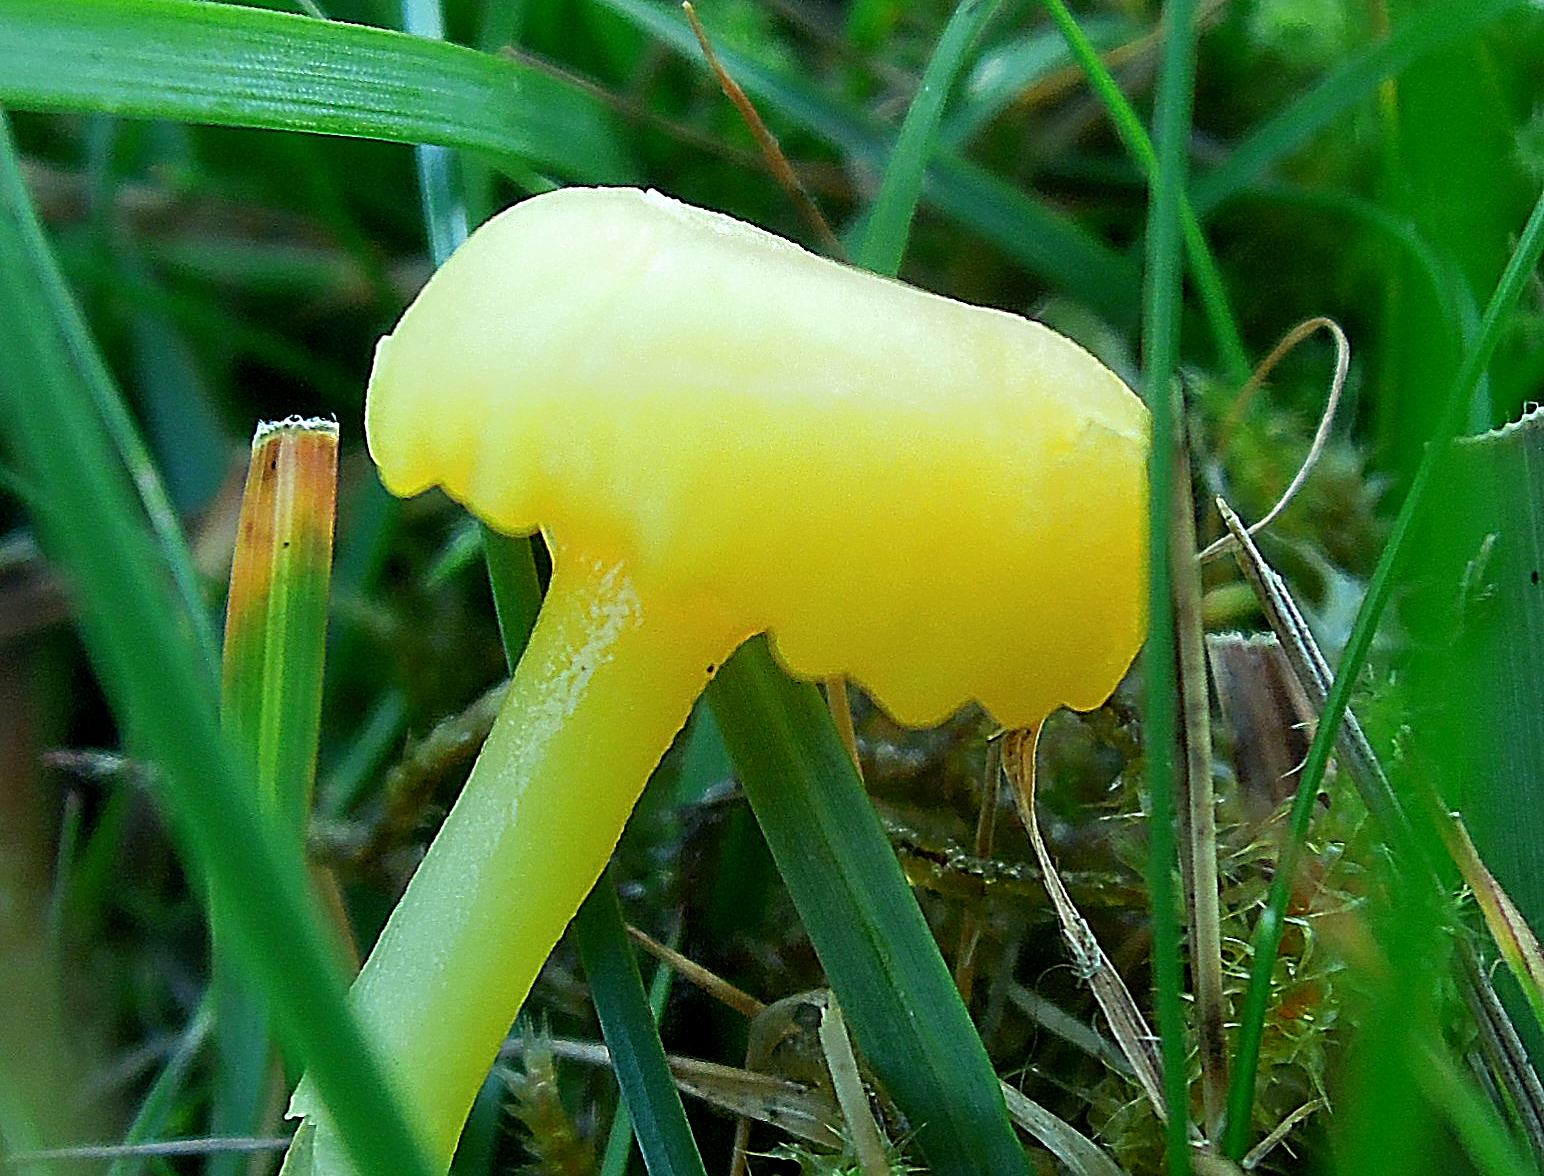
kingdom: Fungi
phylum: Basidiomycota
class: Agaricomycetes
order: Agaricales
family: Hygrophoraceae
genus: Gloioxanthomyces
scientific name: Gloioxanthomyces vitellinus
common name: kromgul vokshat
